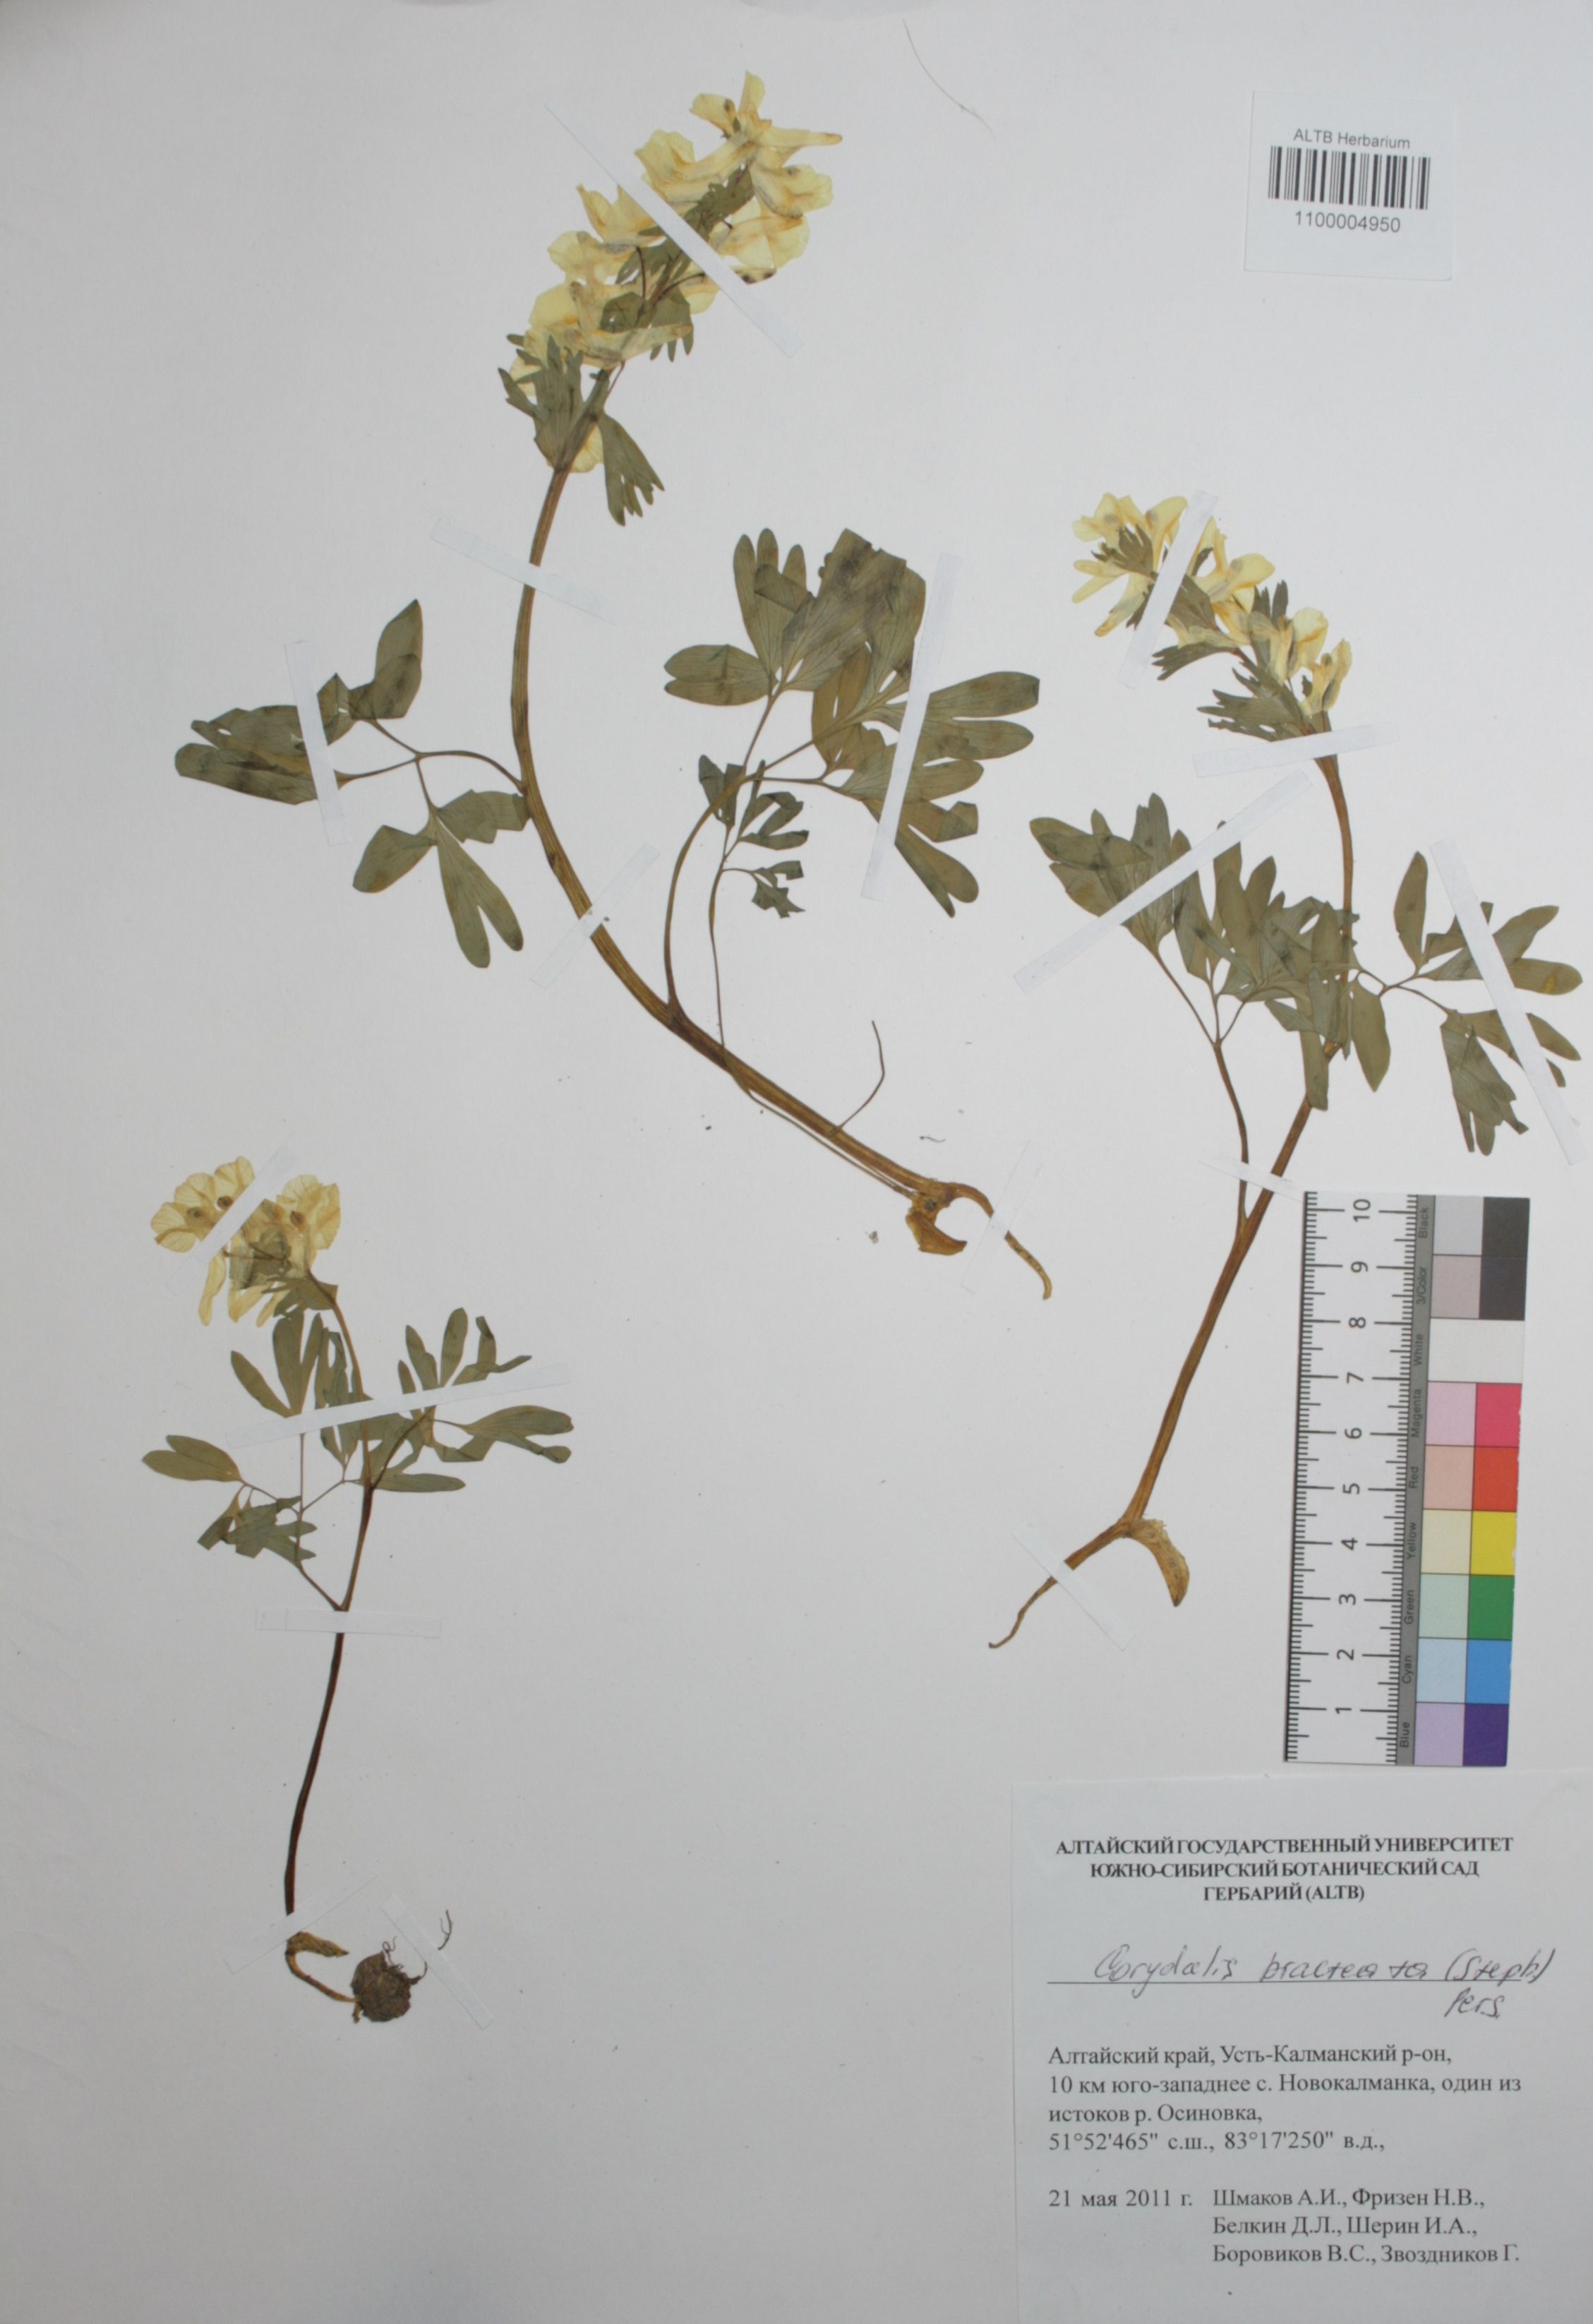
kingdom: Plantae
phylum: Tracheophyta
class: Magnoliopsida
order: Ranunculales
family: Papaveraceae
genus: Corydalis
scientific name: Corydalis bracteata
